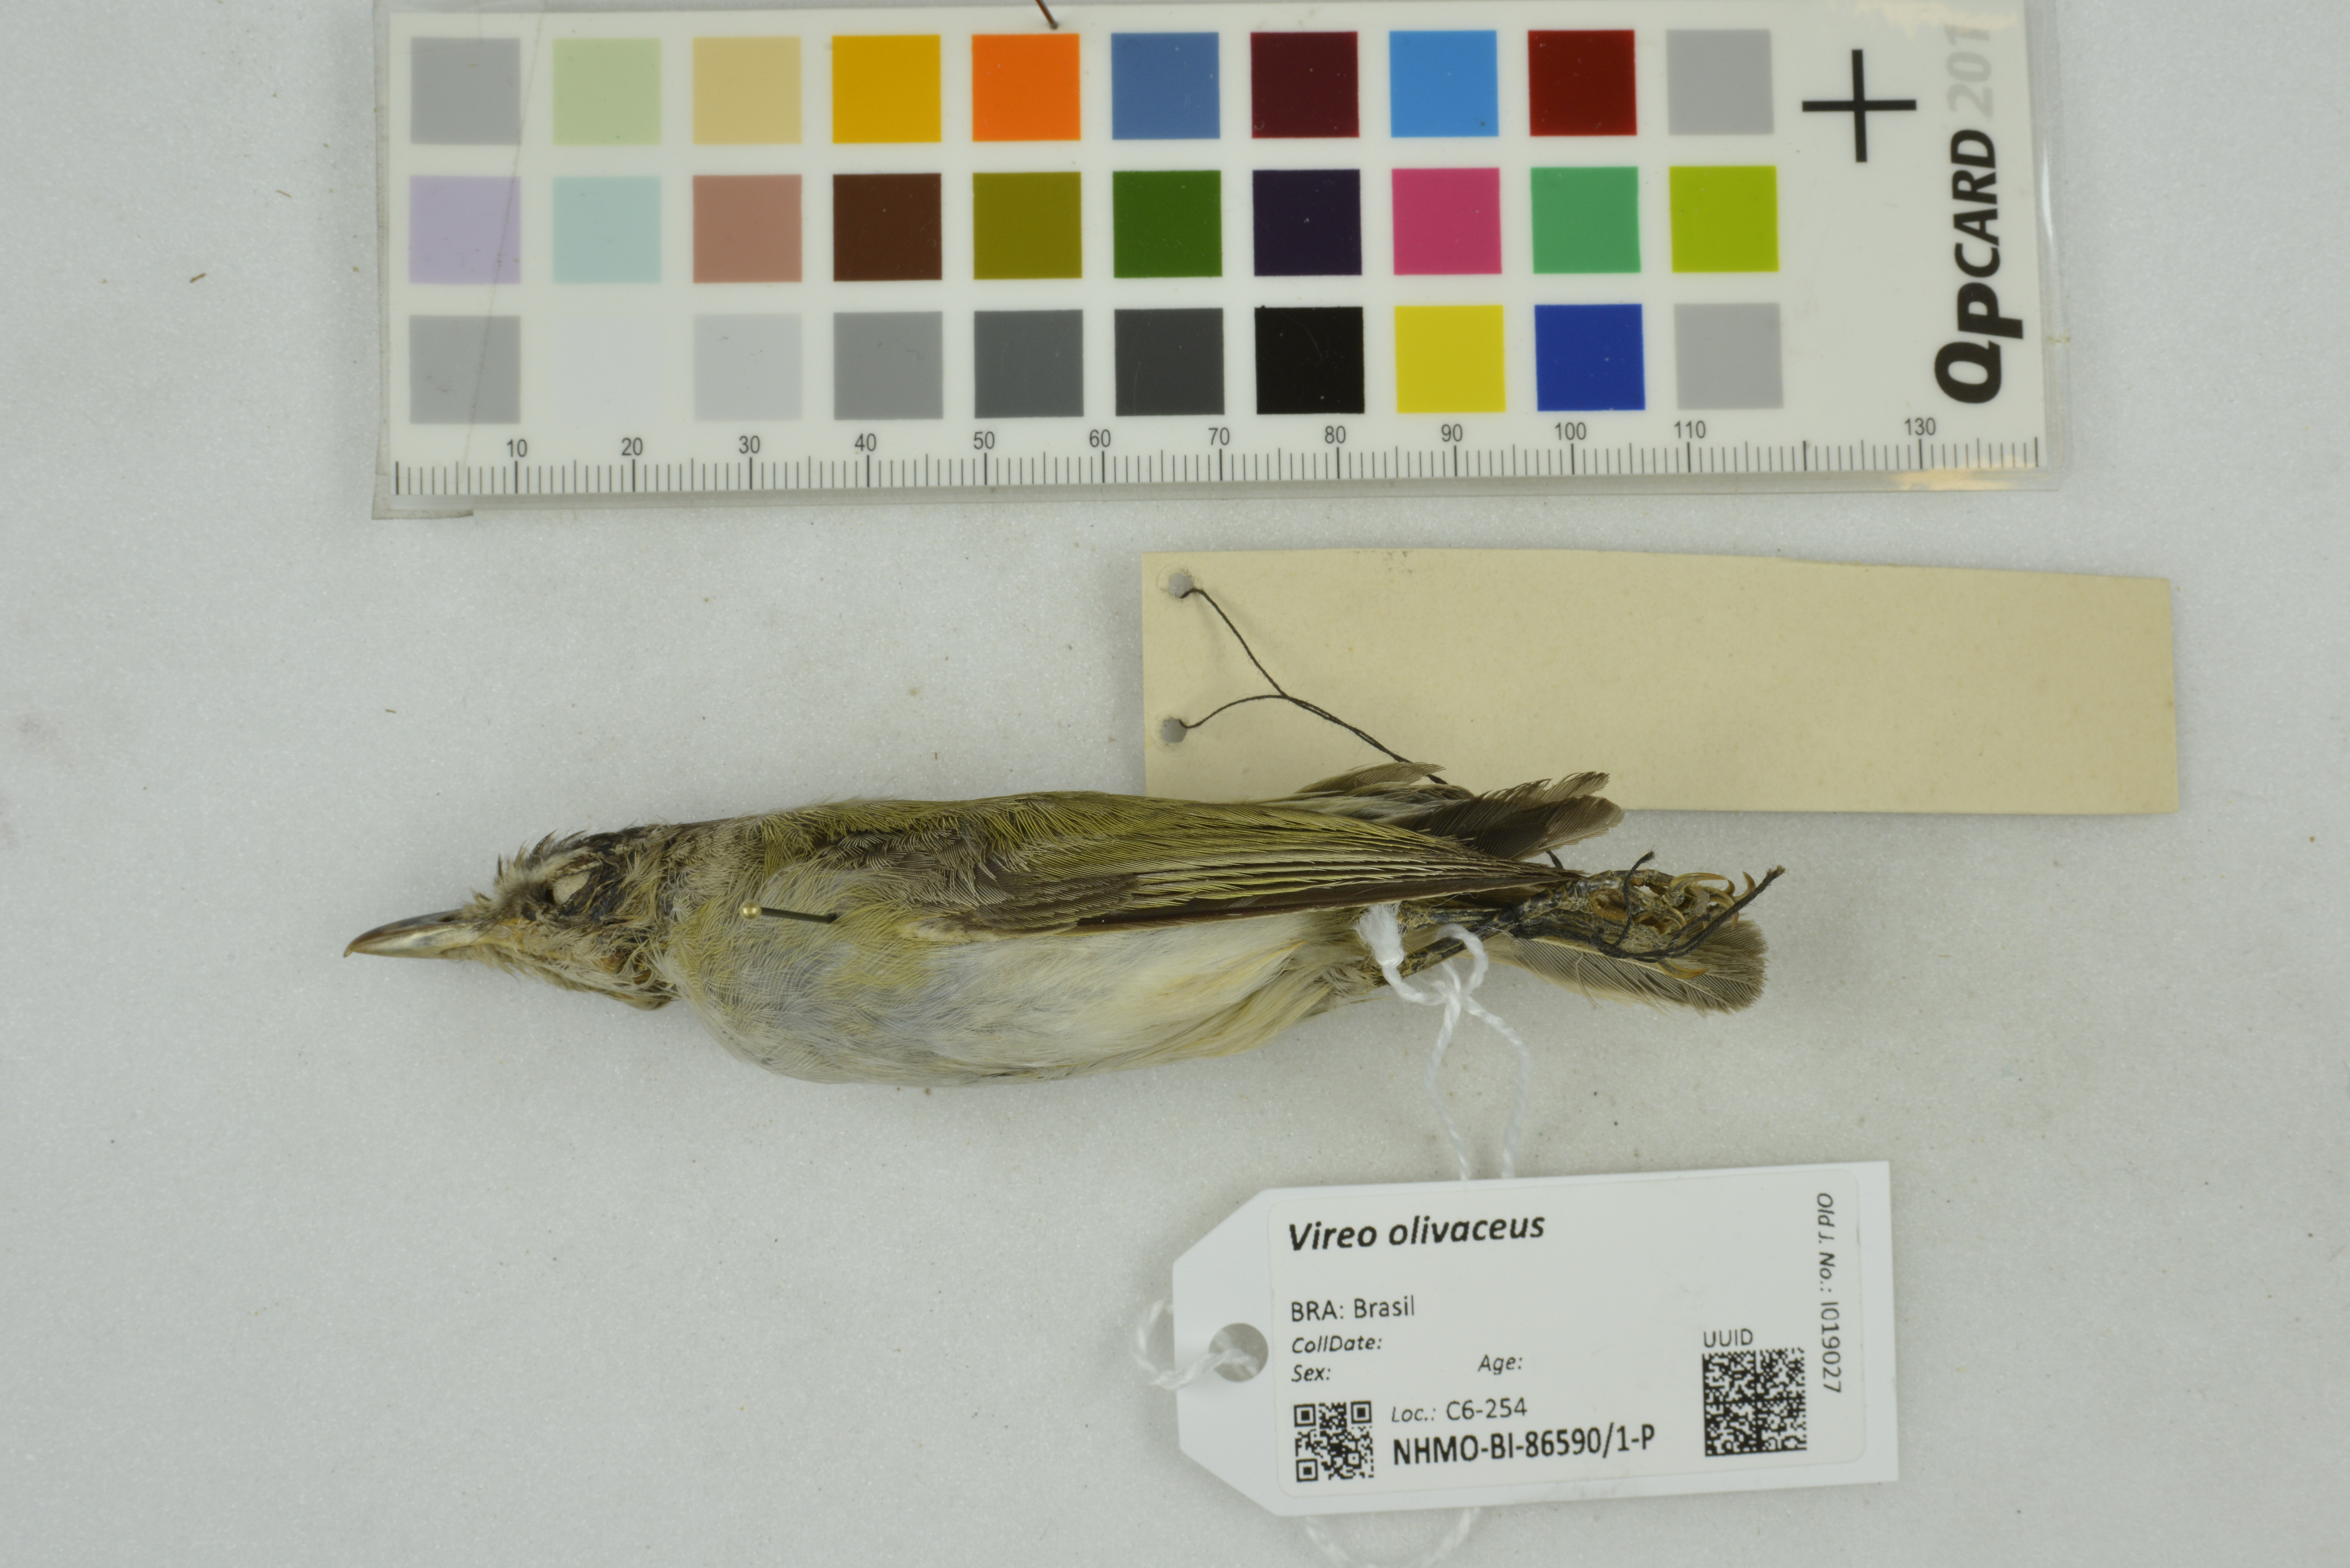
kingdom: Animalia
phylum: Chordata
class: Aves
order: Passeriformes
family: Vireonidae
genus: Vireo
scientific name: Vireo olivaceus
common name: Red-eyed vireo
